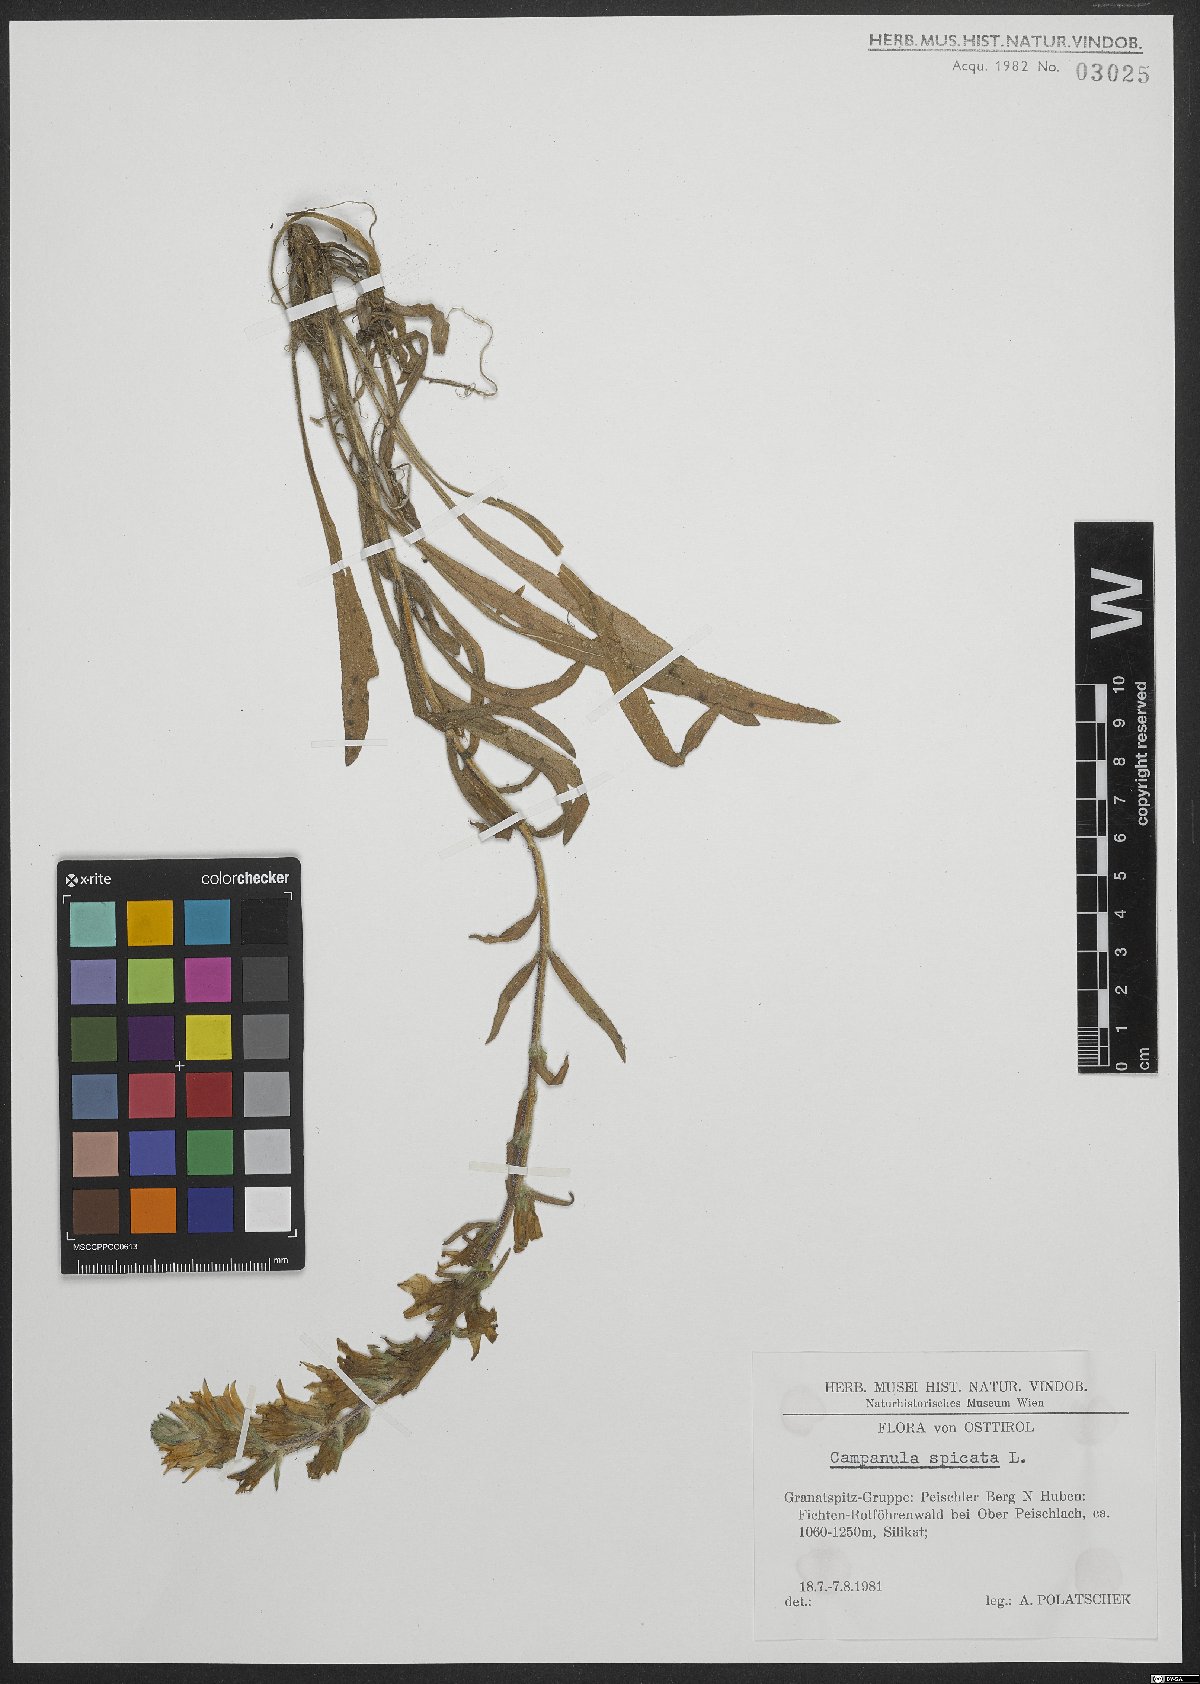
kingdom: Plantae
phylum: Tracheophyta
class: Magnoliopsida
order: Asterales
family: Campanulaceae
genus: Campanula
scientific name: Campanula spicata
